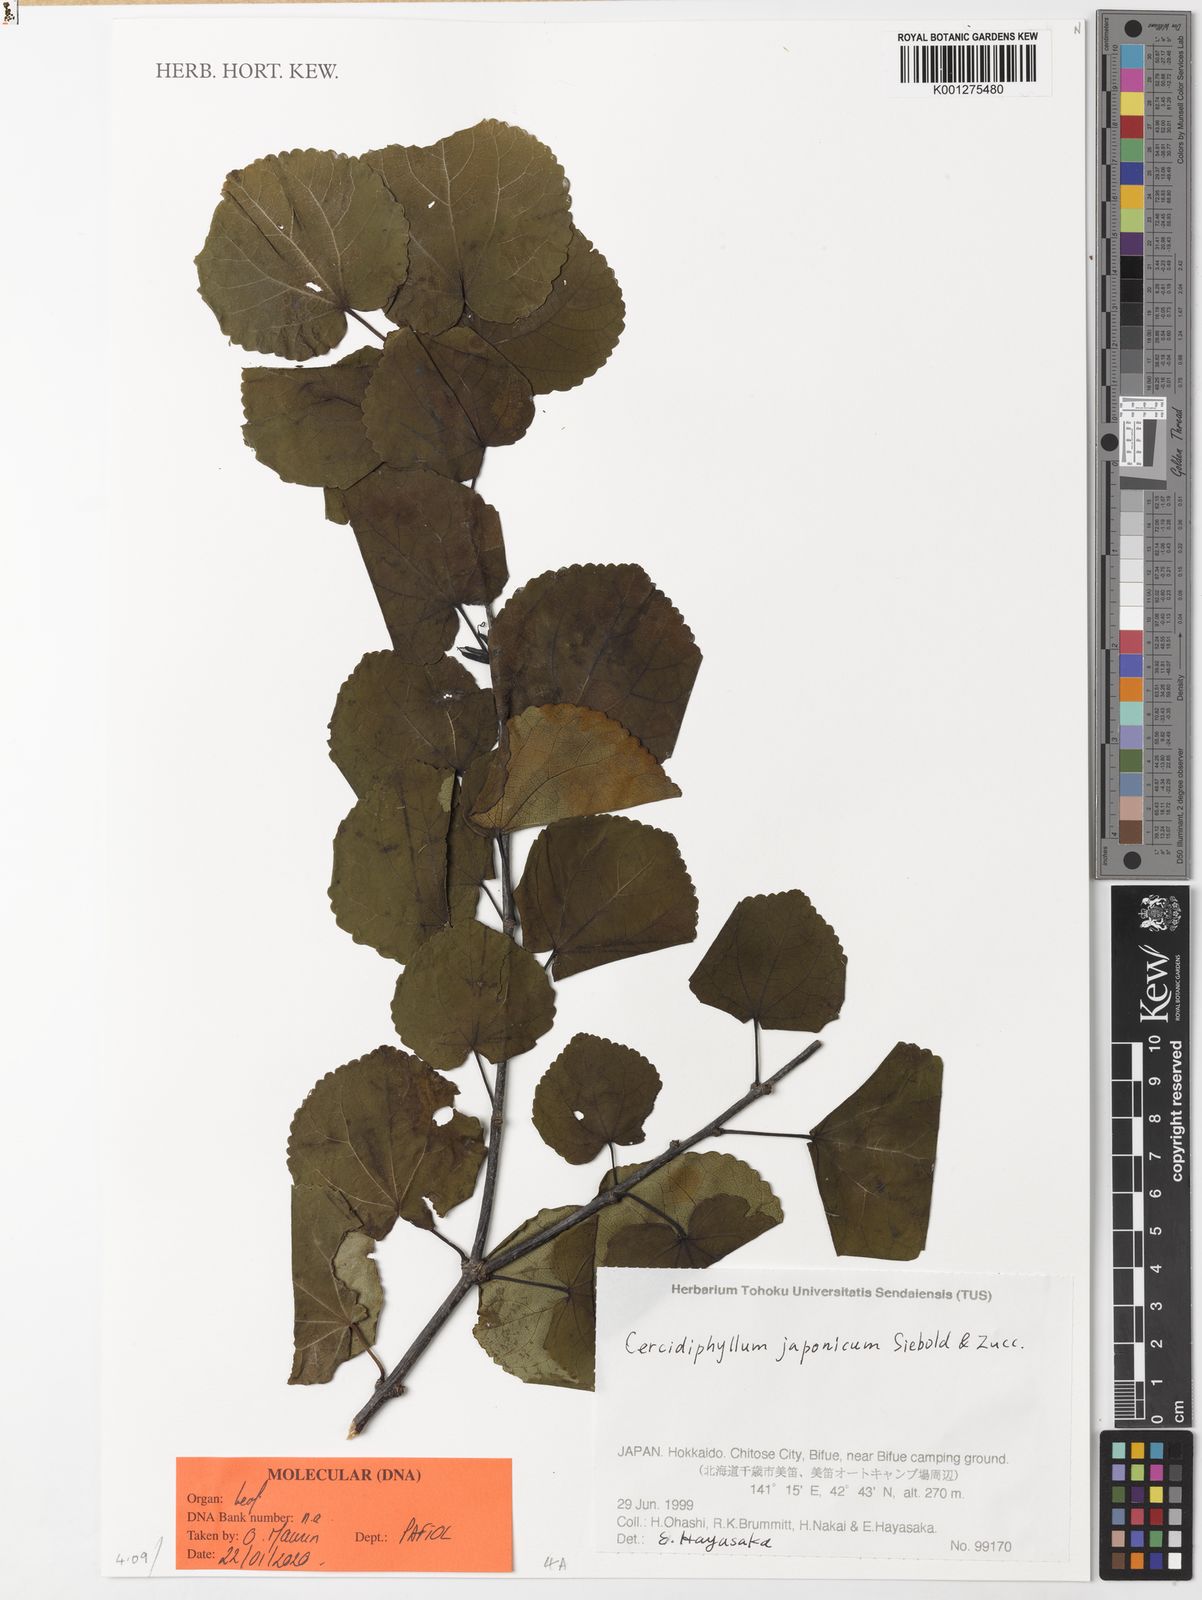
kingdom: Plantae
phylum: Tracheophyta
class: Magnoliopsida
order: Saxifragales
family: Cercidiphyllaceae
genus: Cercidiphyllum
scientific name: Cercidiphyllum
